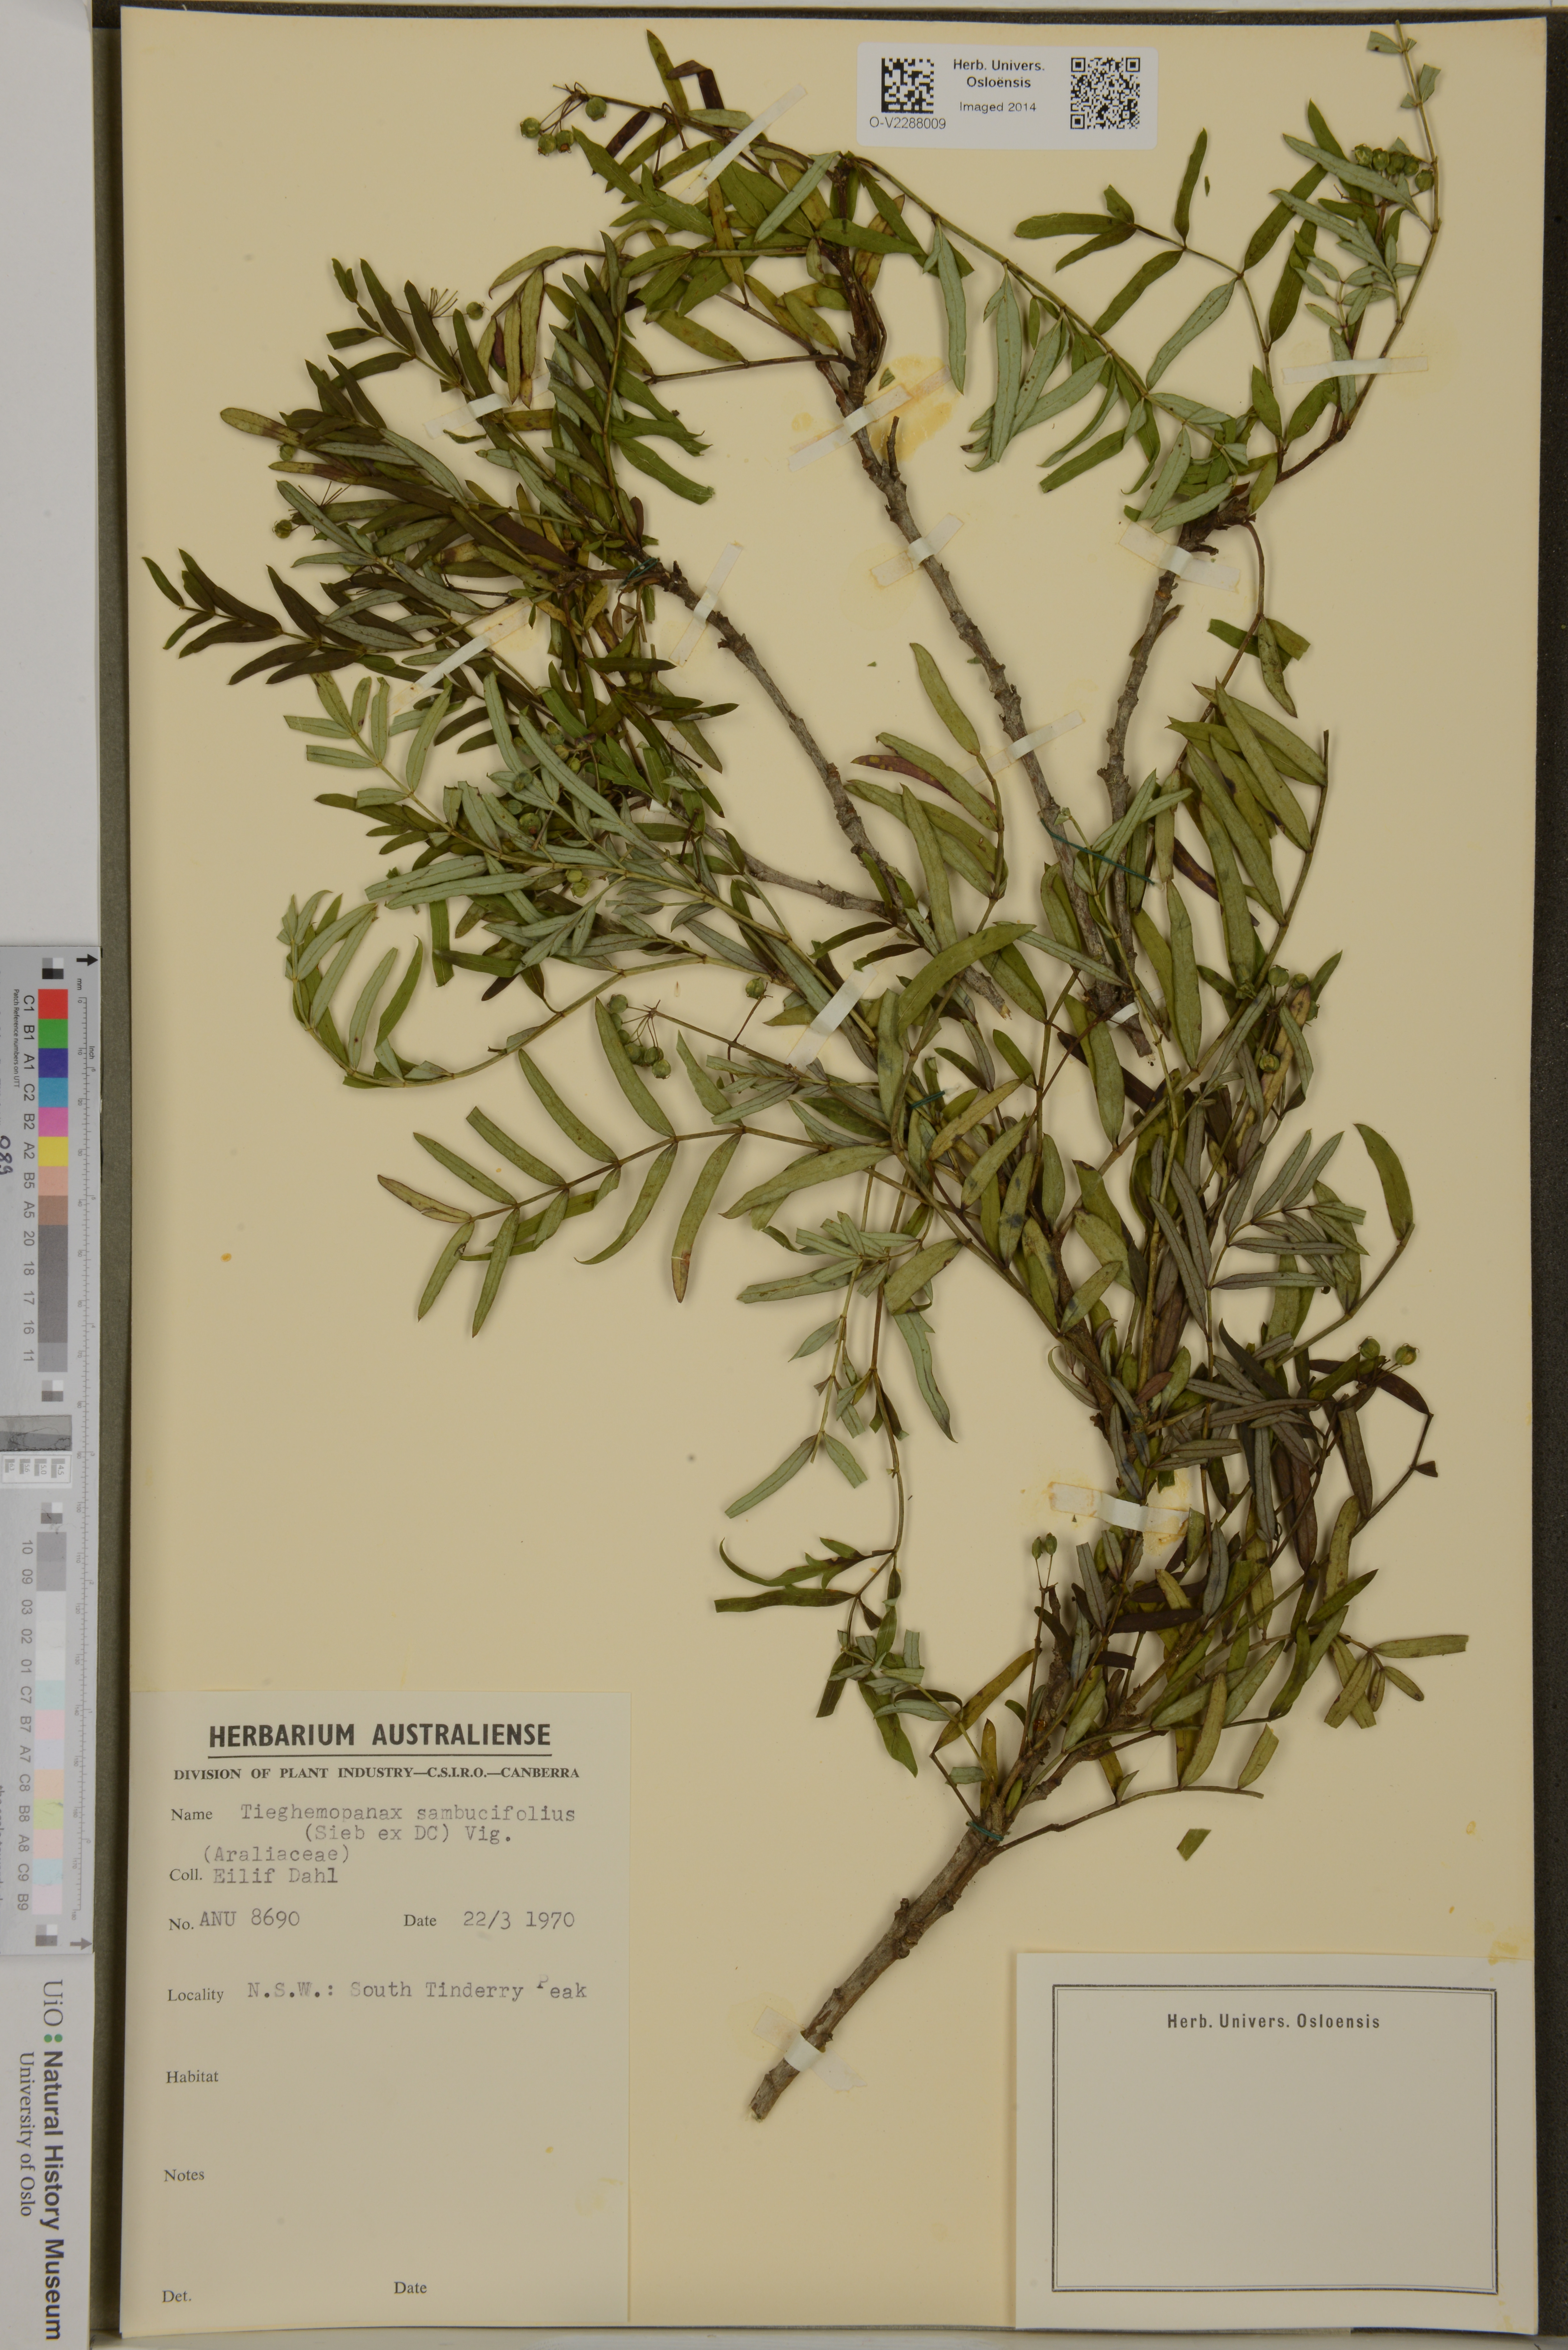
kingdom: Plantae
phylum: Tracheophyta
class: Magnoliopsida
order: Apiales
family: Araliaceae
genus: Polyscias
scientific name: Polyscias sambucifolia
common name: Elderberry-ash
